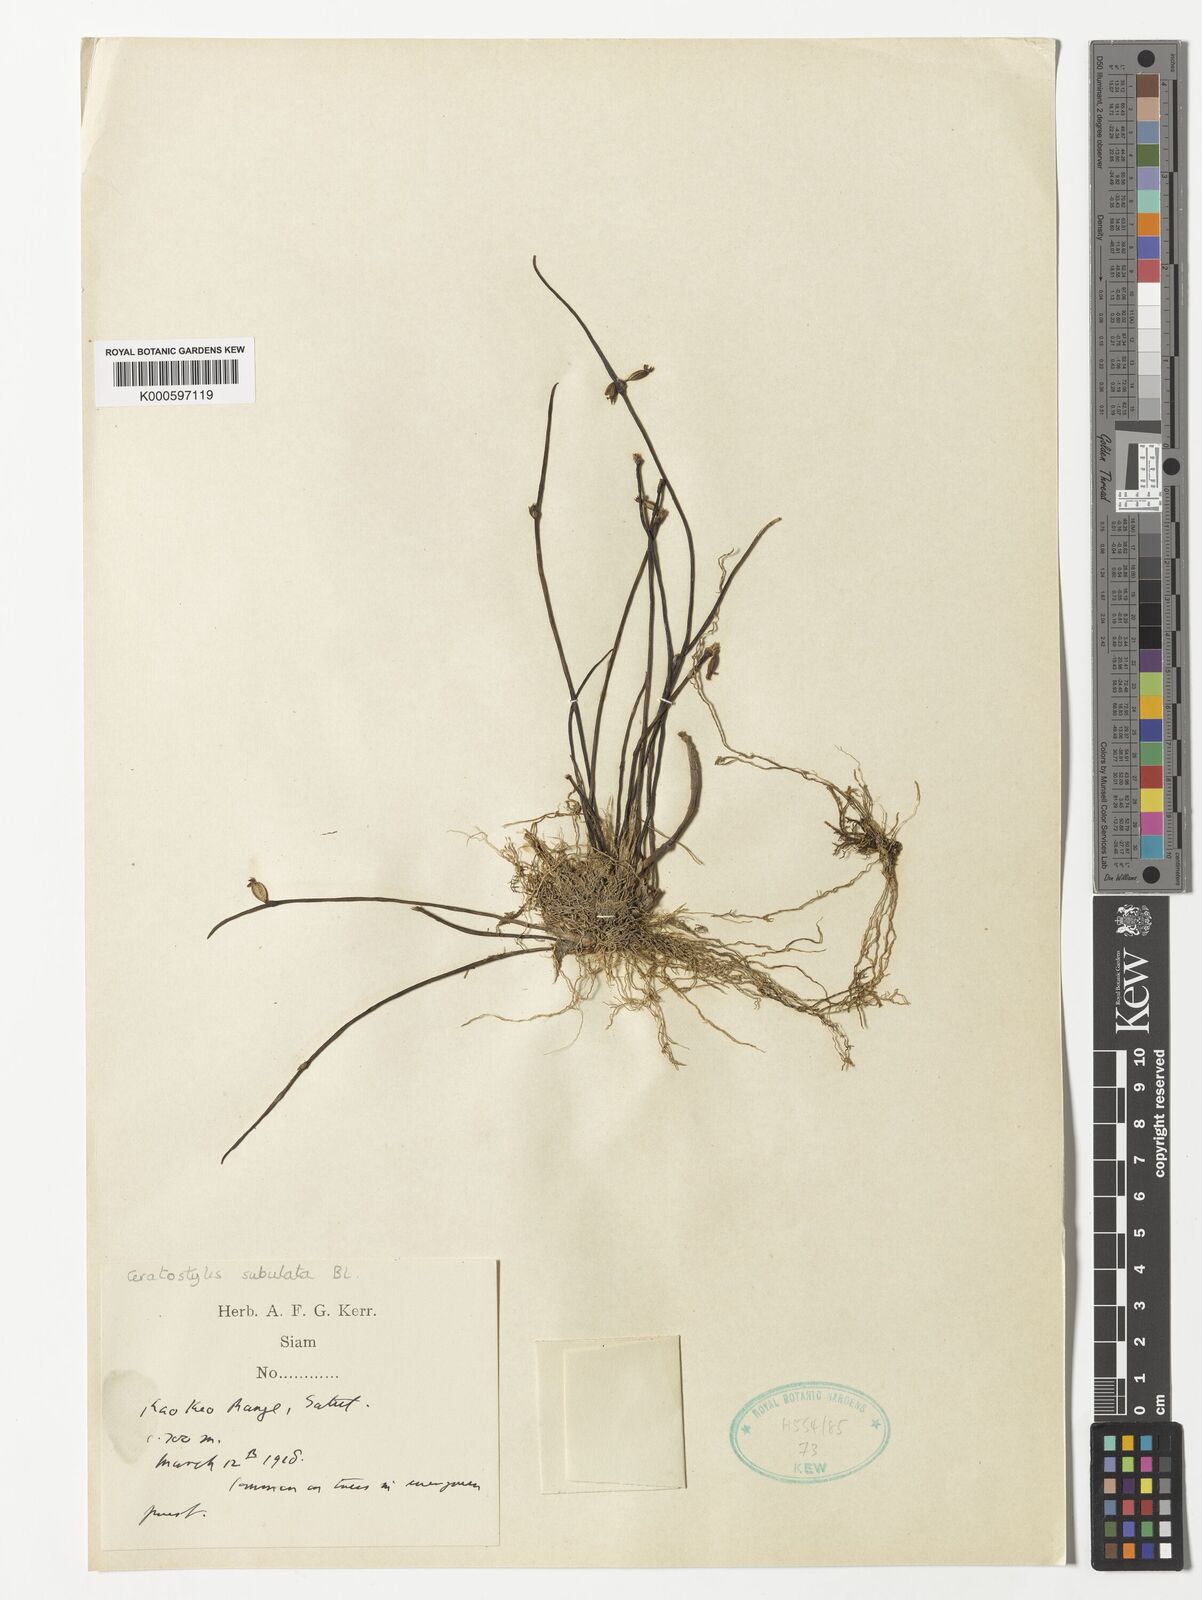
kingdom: Plantae
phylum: Tracheophyta
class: Liliopsida
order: Asparagales
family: Orchidaceae
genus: Ceratostylis
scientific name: Ceratostylis subulata
